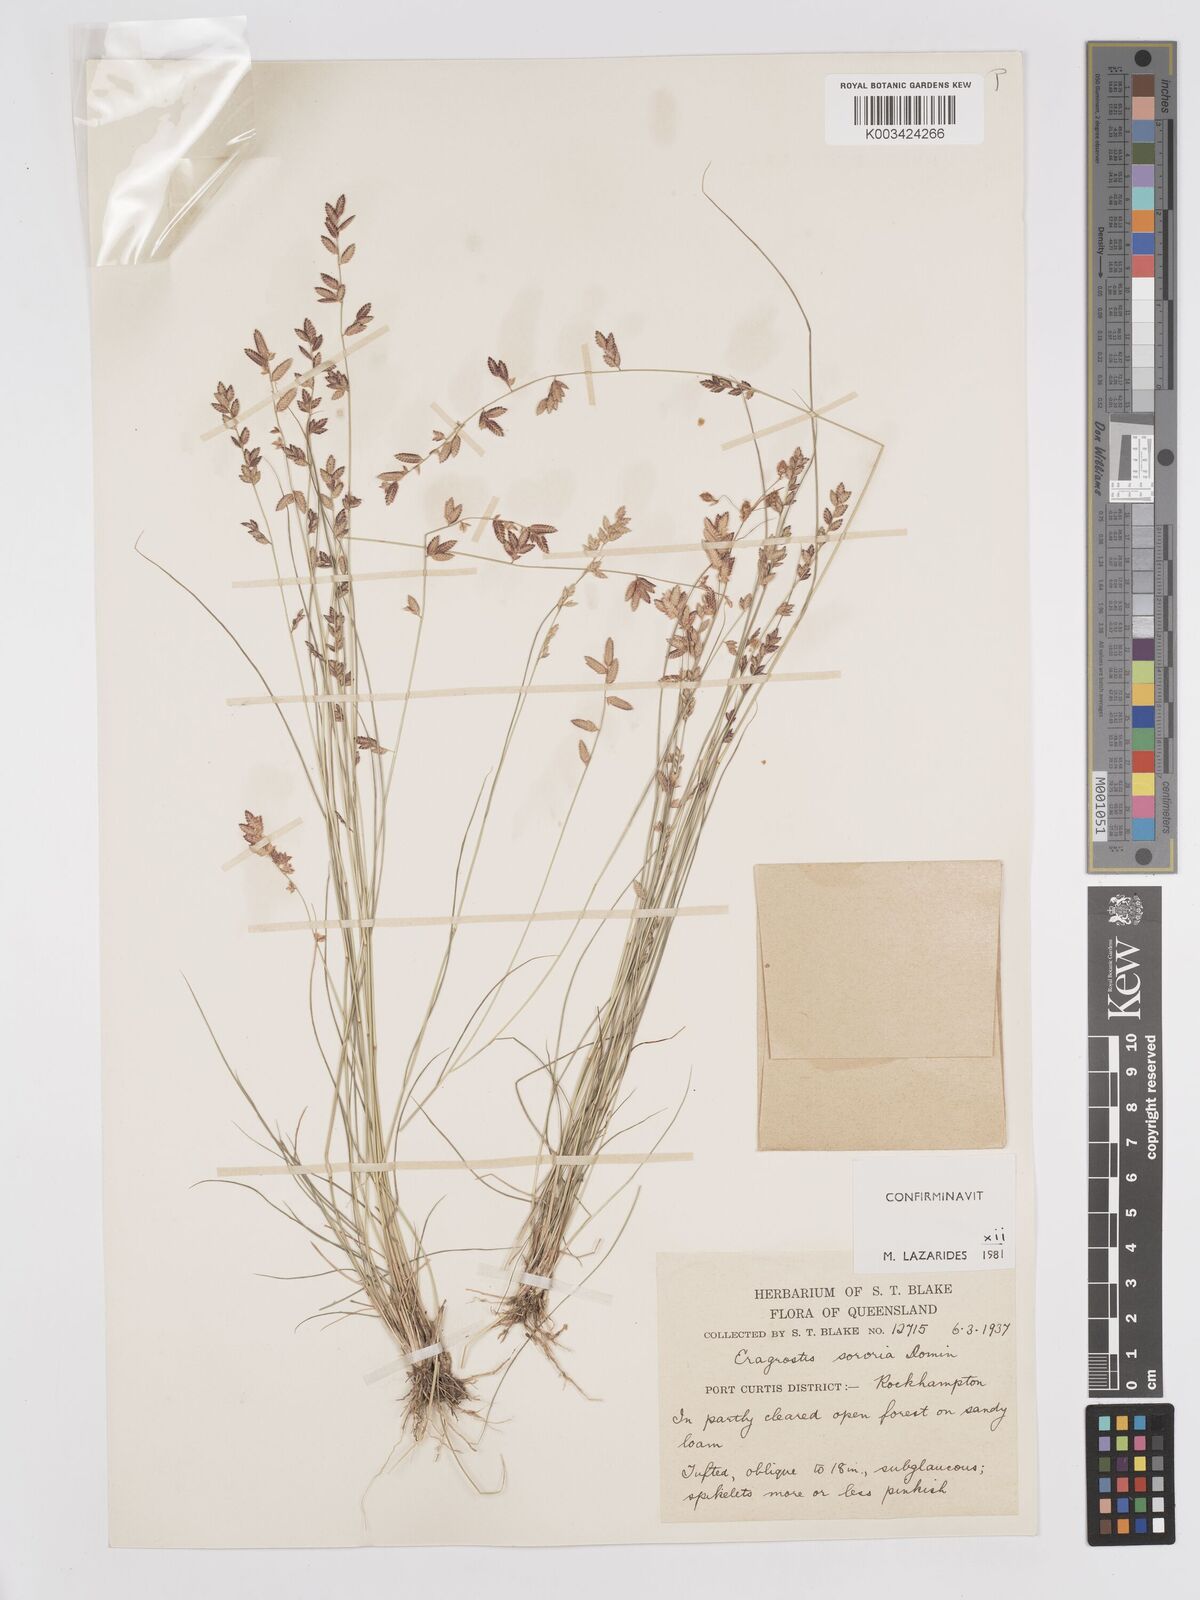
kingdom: Plantae
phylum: Tracheophyta
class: Liliopsida
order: Poales
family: Poaceae
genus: Eragrostis
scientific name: Eragrostis sororia
